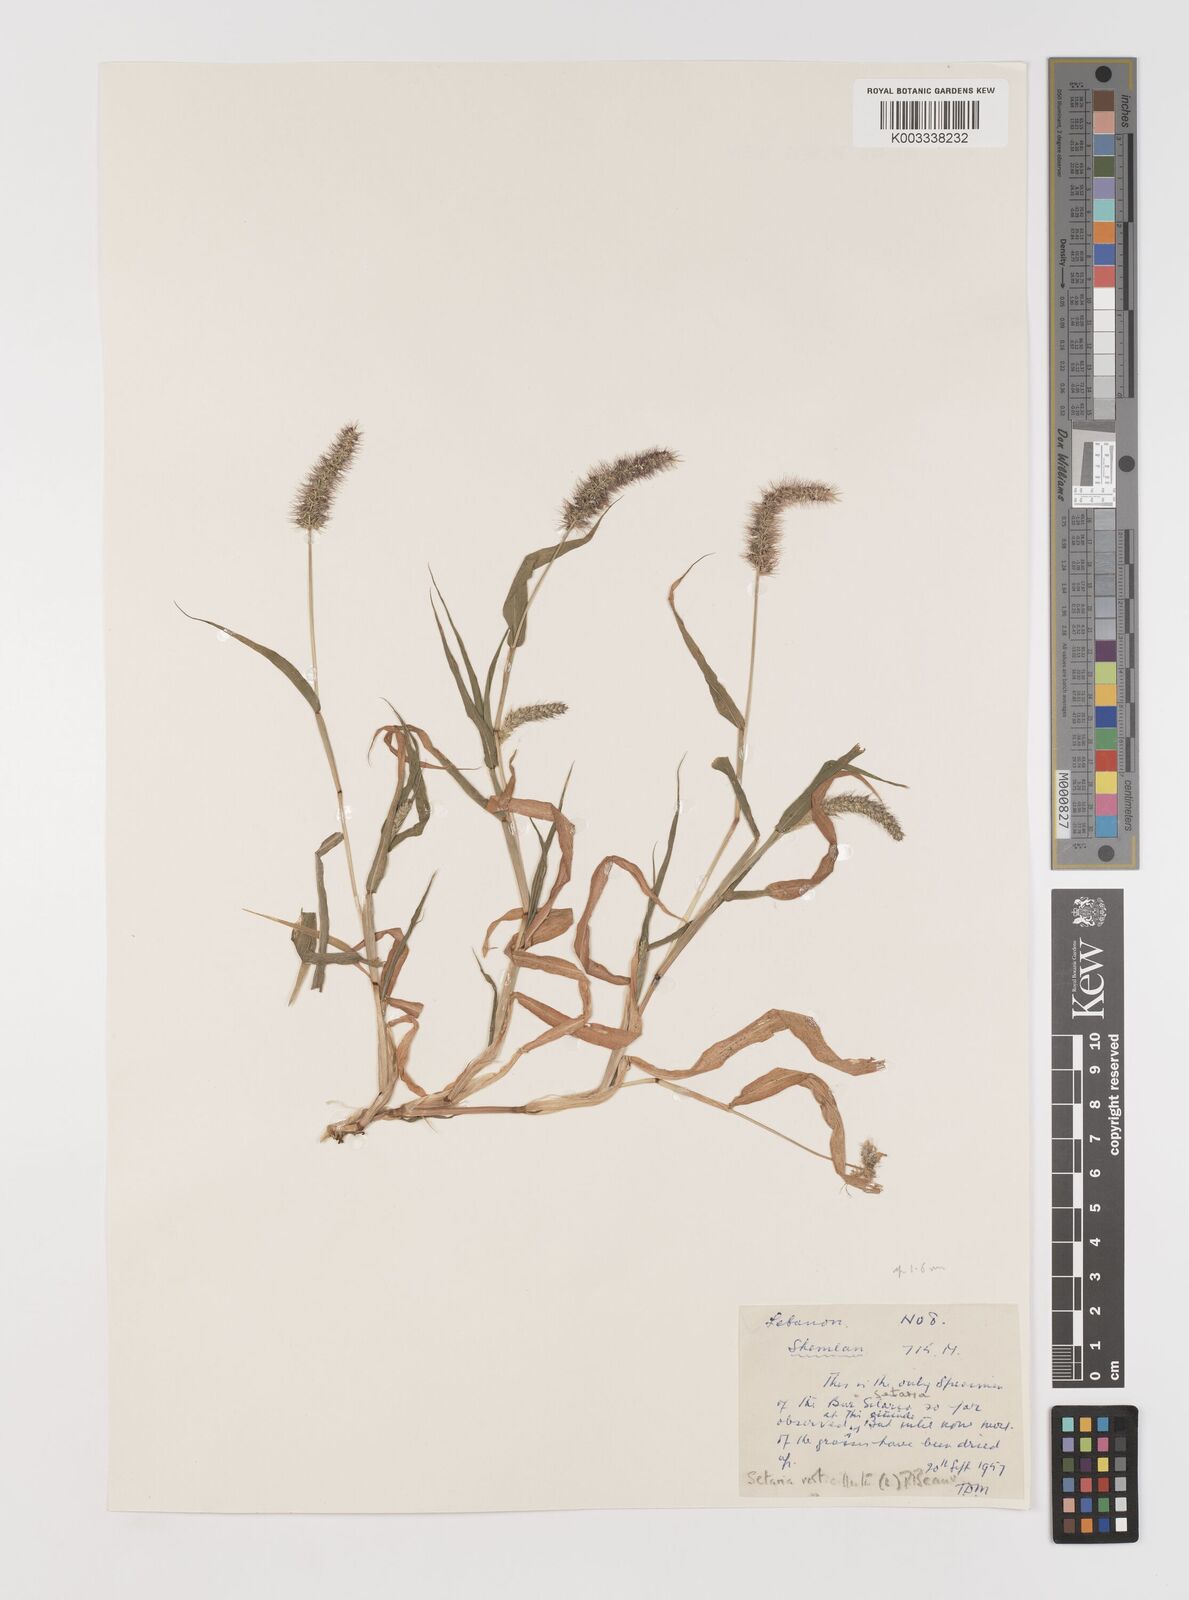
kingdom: Plantae
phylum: Tracheophyta
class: Liliopsida
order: Poales
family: Poaceae
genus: Setaria
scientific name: Setaria verticillata
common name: Hooked bristlegrass
